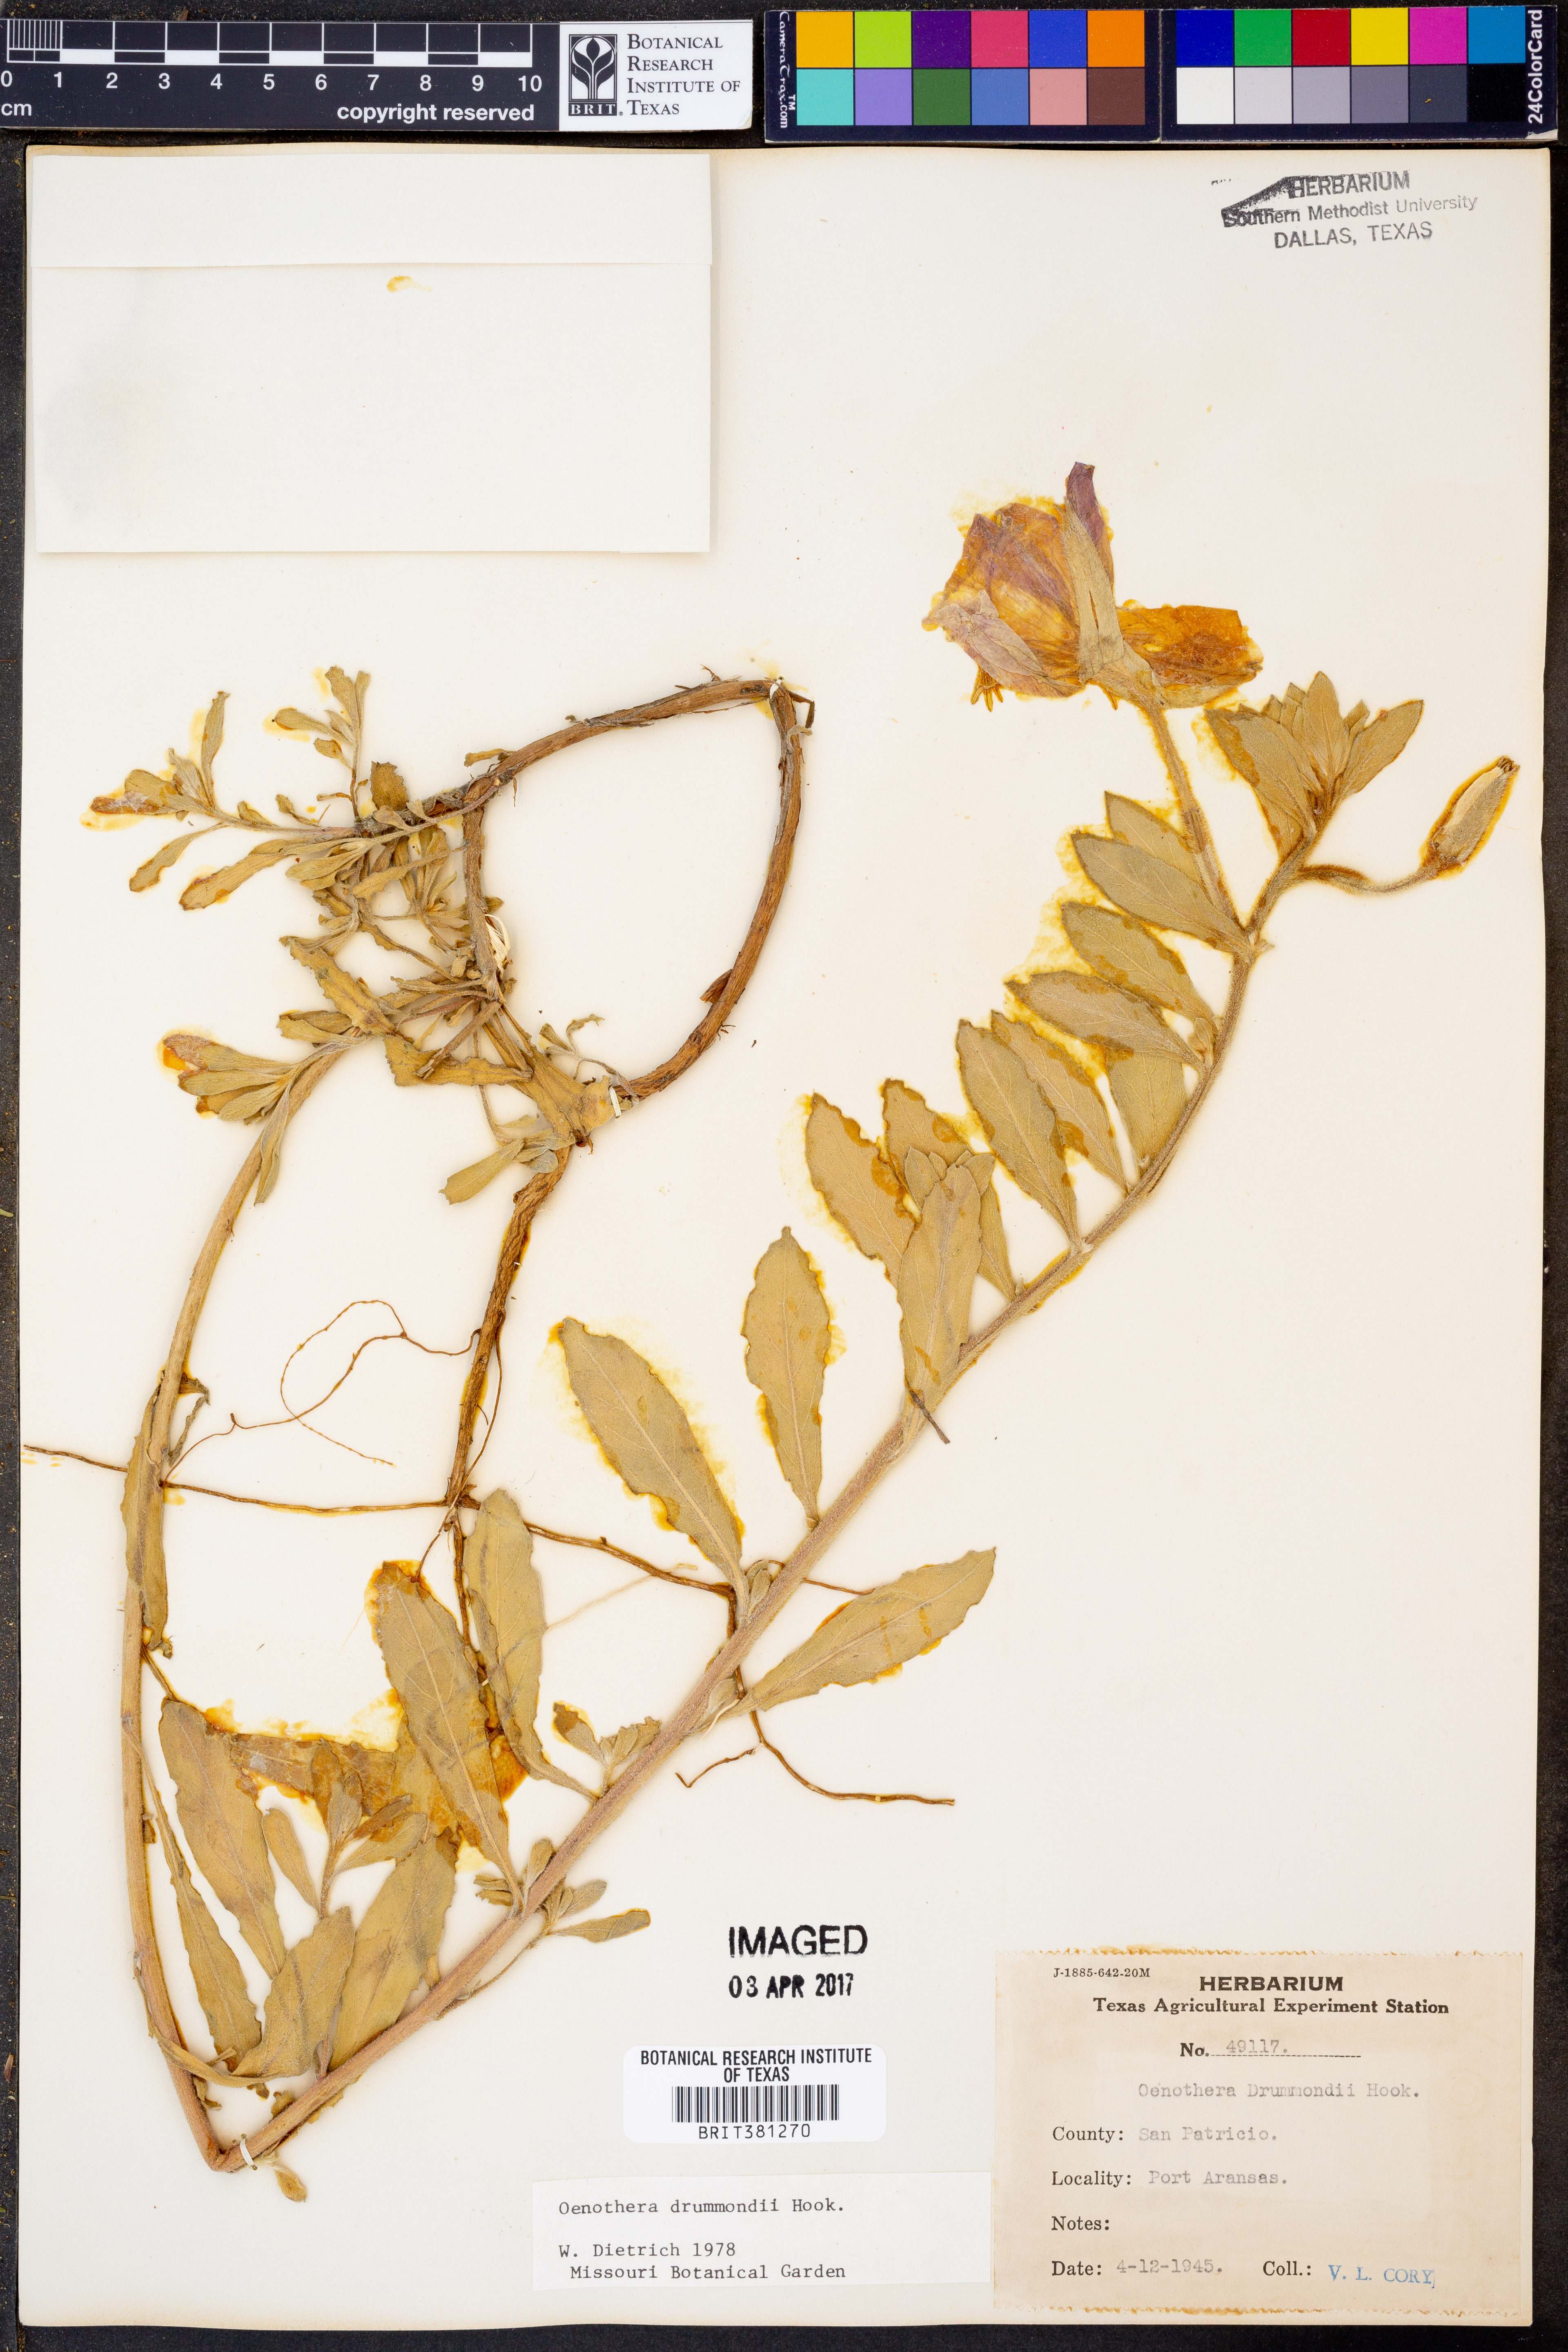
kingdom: Plantae
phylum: Tracheophyta
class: Magnoliopsida
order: Myrtales
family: Onagraceae
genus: Oenothera
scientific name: Oenothera drummondii
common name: Beach evening-primrose
